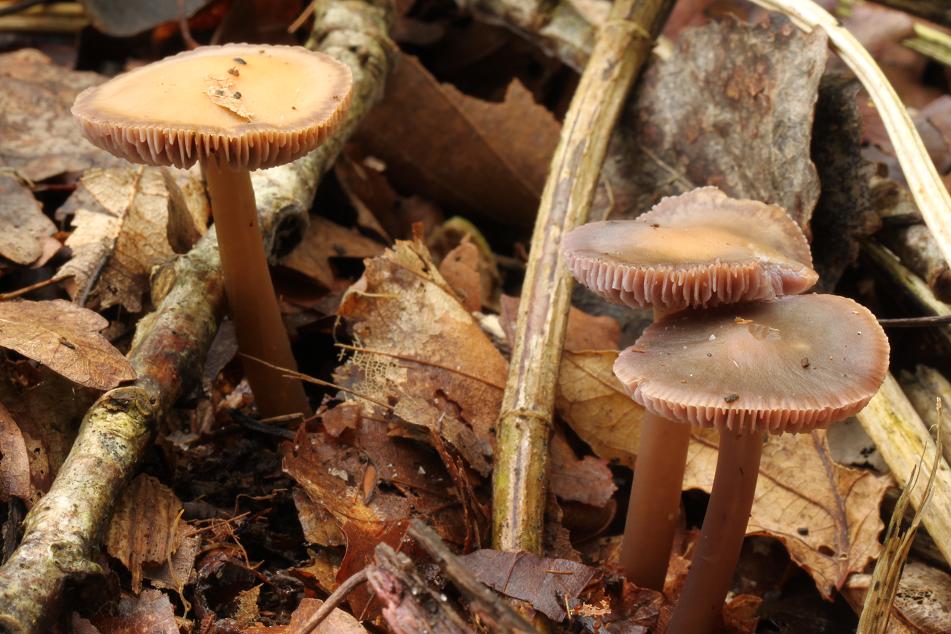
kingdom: Fungi
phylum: Basidiomycota
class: Agaricomycetes
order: Agaricales
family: Mycenaceae
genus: Prunulus
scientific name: Prunulus diosmus
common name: tobaks-huesvamp
